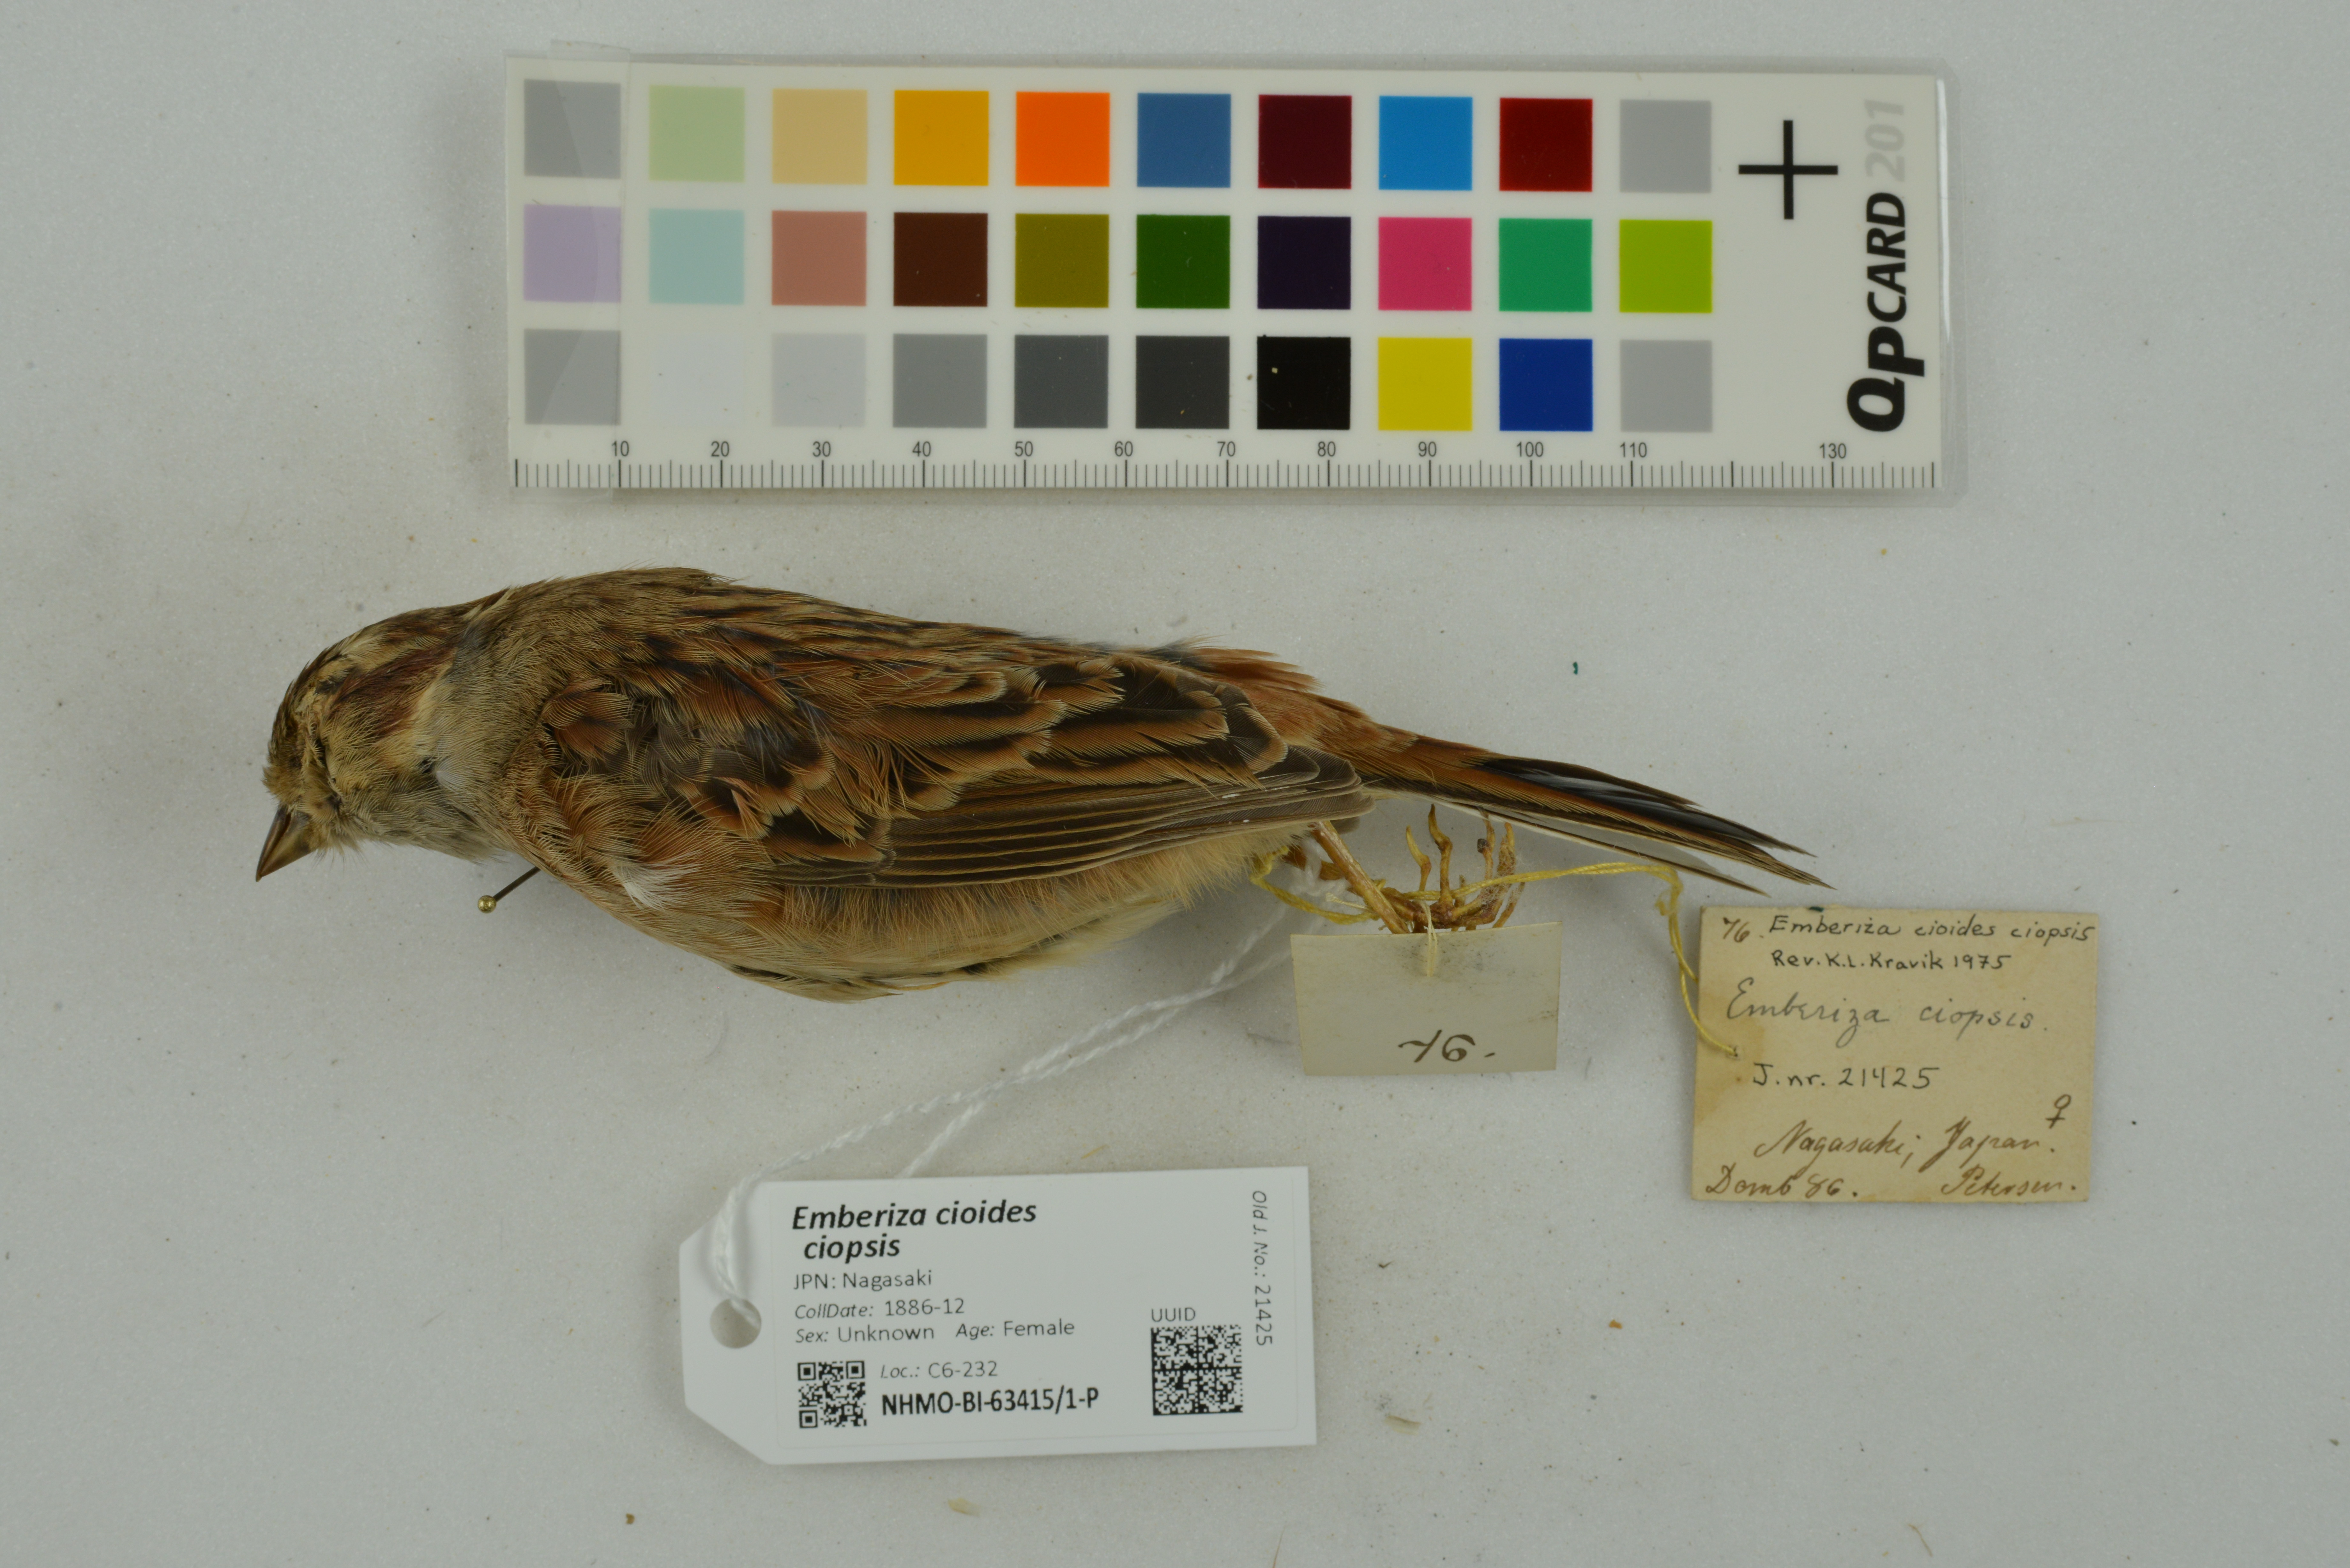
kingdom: Animalia
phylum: Chordata
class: Aves
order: Passeriformes
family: Emberizidae
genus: Emberiza
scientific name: Emberiza cioides
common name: Meadow bunting
